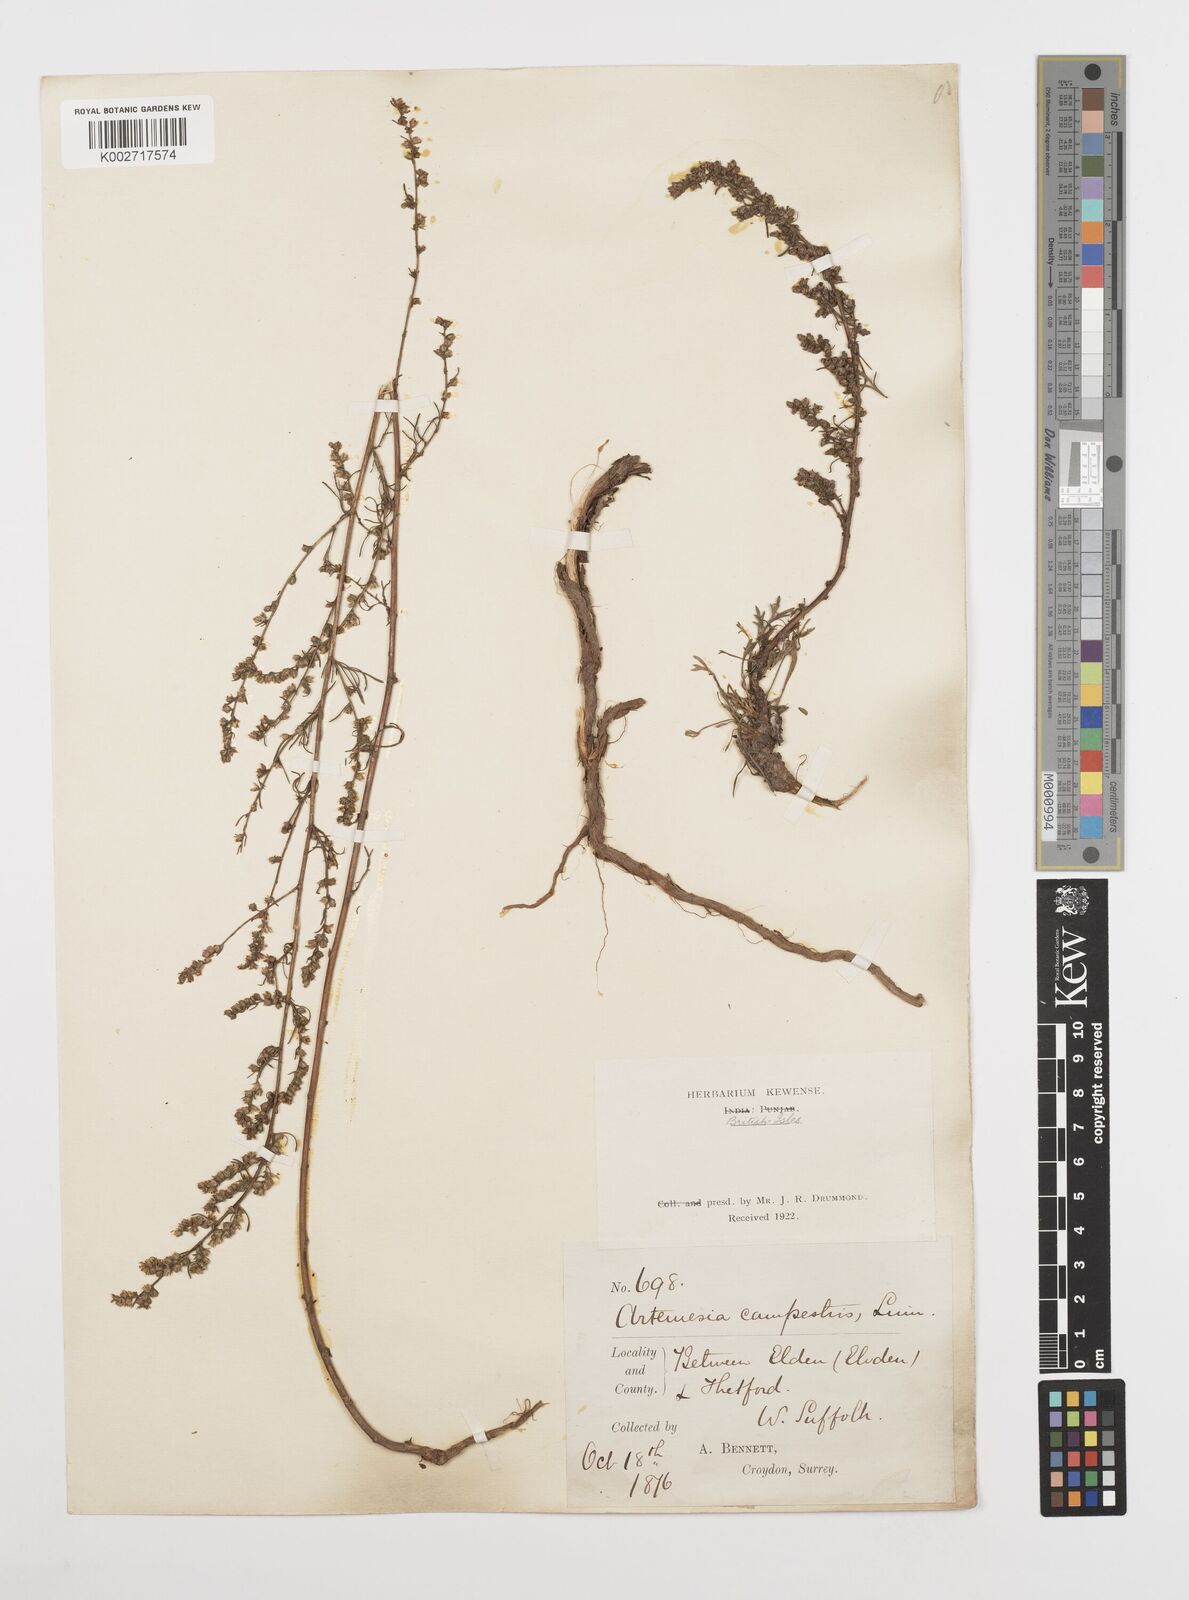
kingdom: Plantae
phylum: Tracheophyta
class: Magnoliopsida
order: Asterales
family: Asteraceae
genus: Artemisia
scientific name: Artemisia campestris
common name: Field wormwood
